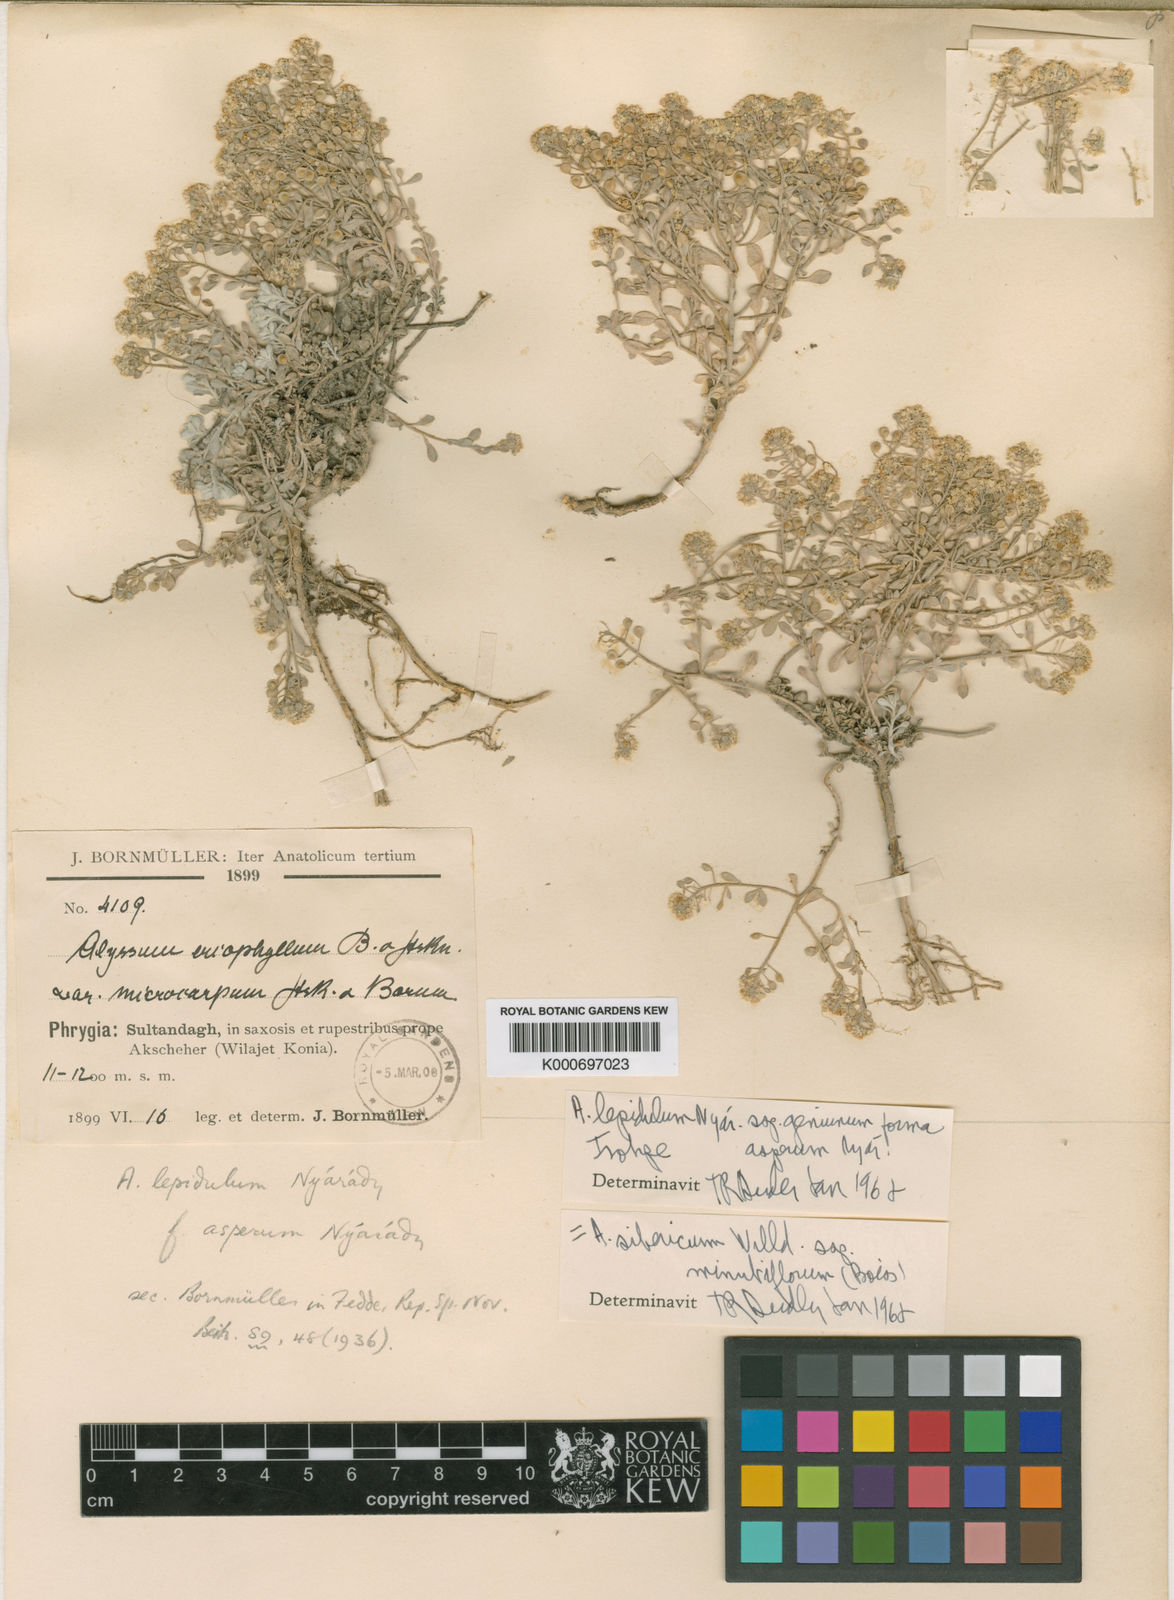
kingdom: Plantae
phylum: Tracheophyta
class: Magnoliopsida
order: Brassicales
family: Brassicaceae
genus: Odontarrhena
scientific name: Odontarrhena sibirica
